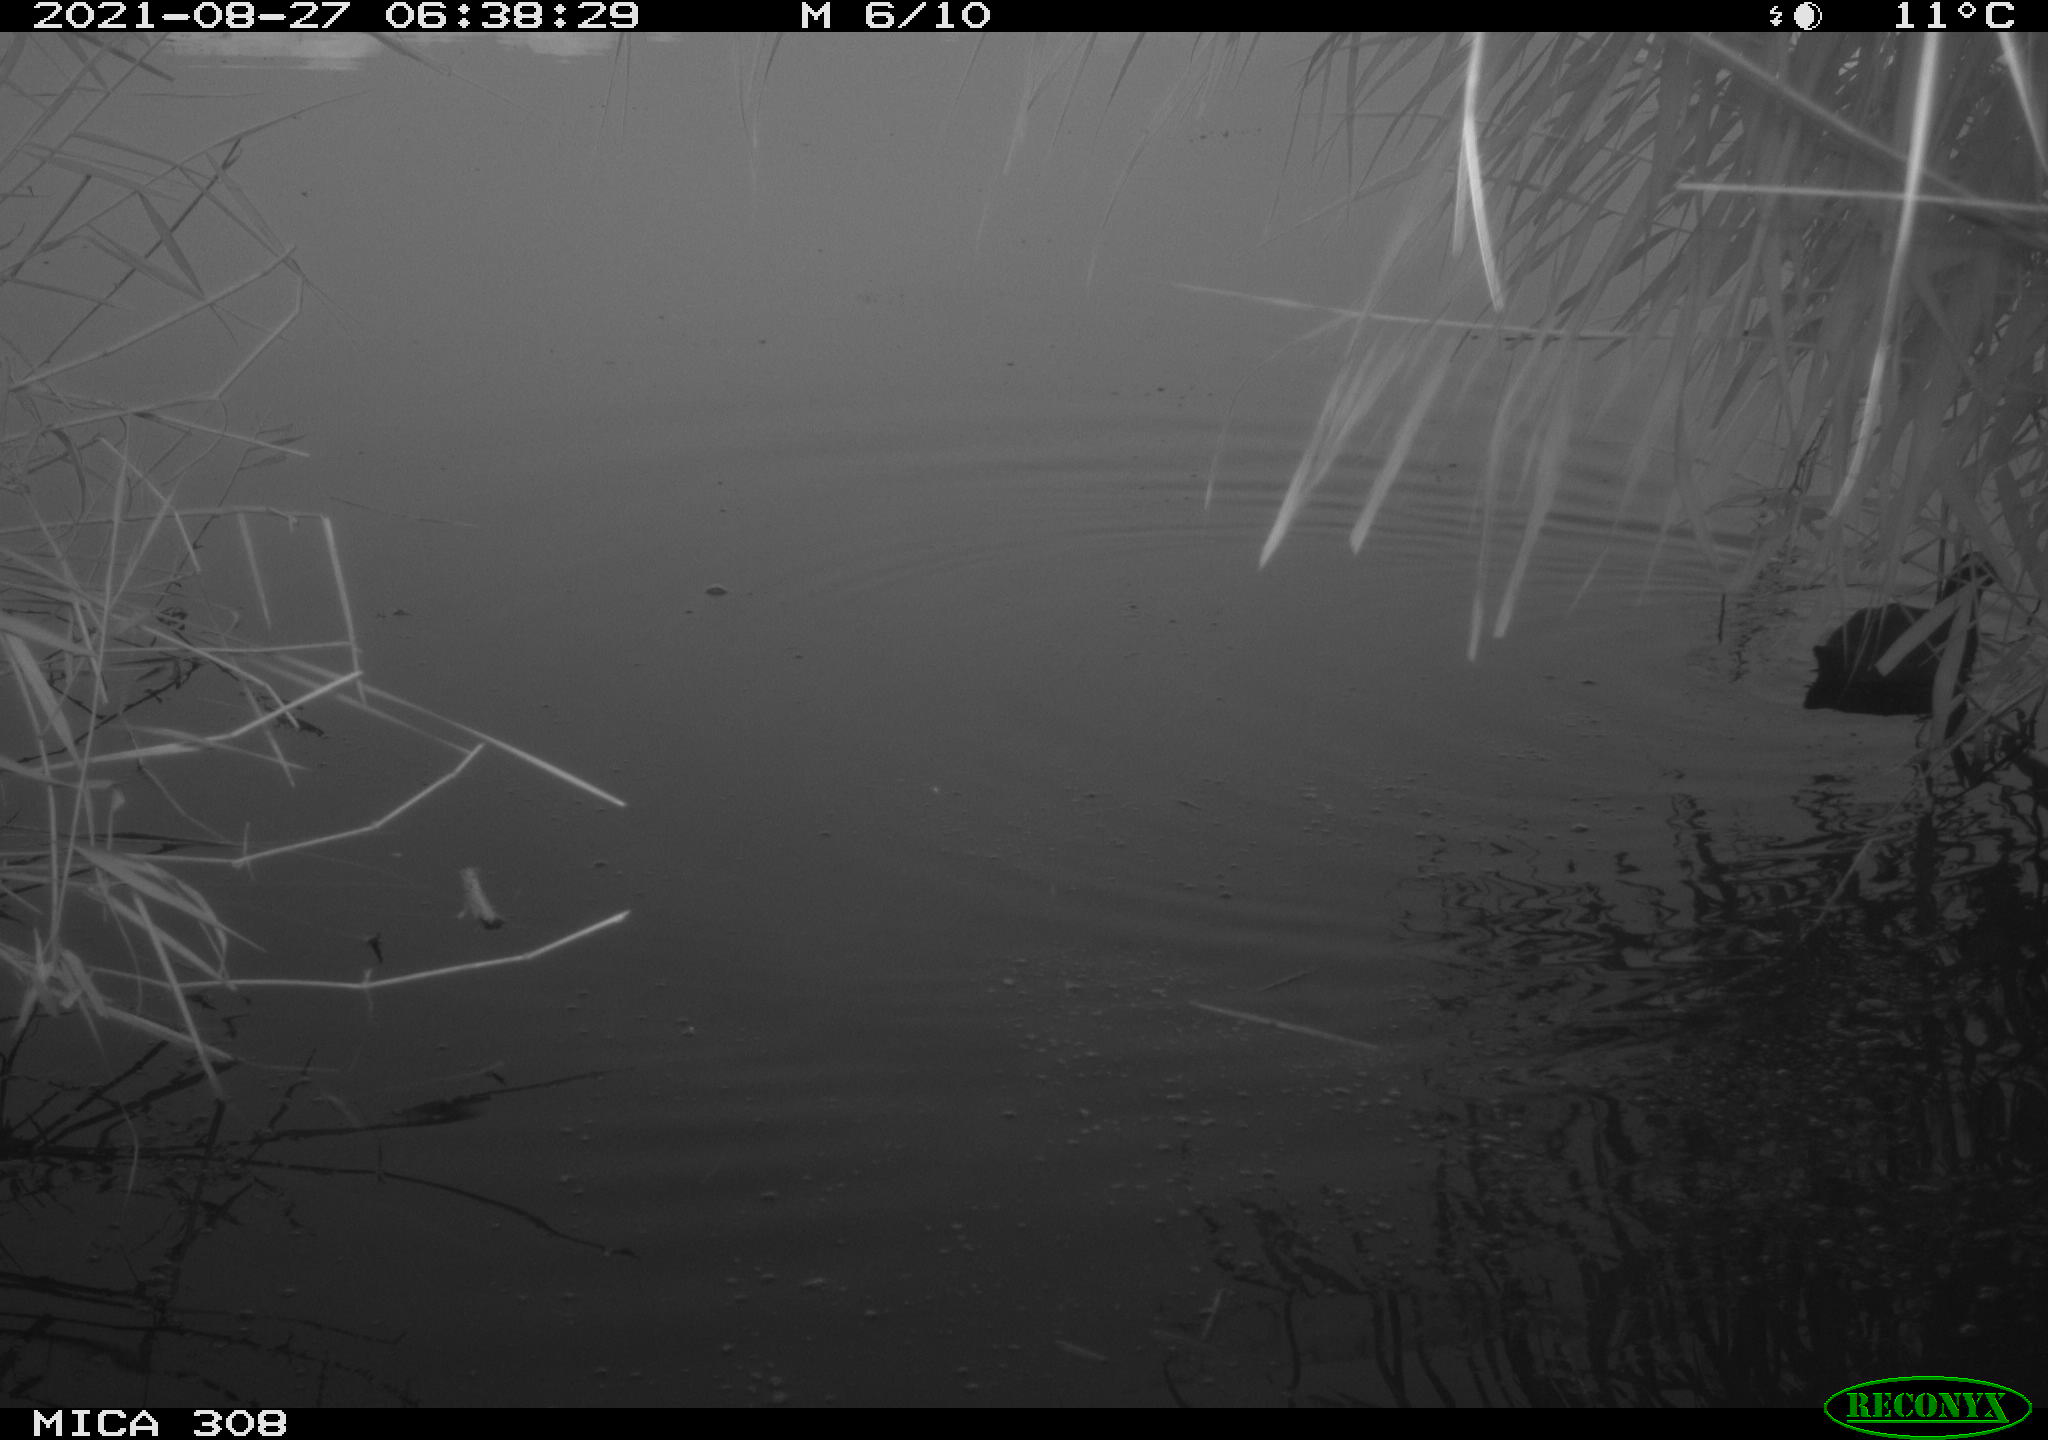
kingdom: Animalia
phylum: Chordata
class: Aves
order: Gruiformes
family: Rallidae
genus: Gallinula
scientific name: Gallinula chloropus
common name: Common moorhen
